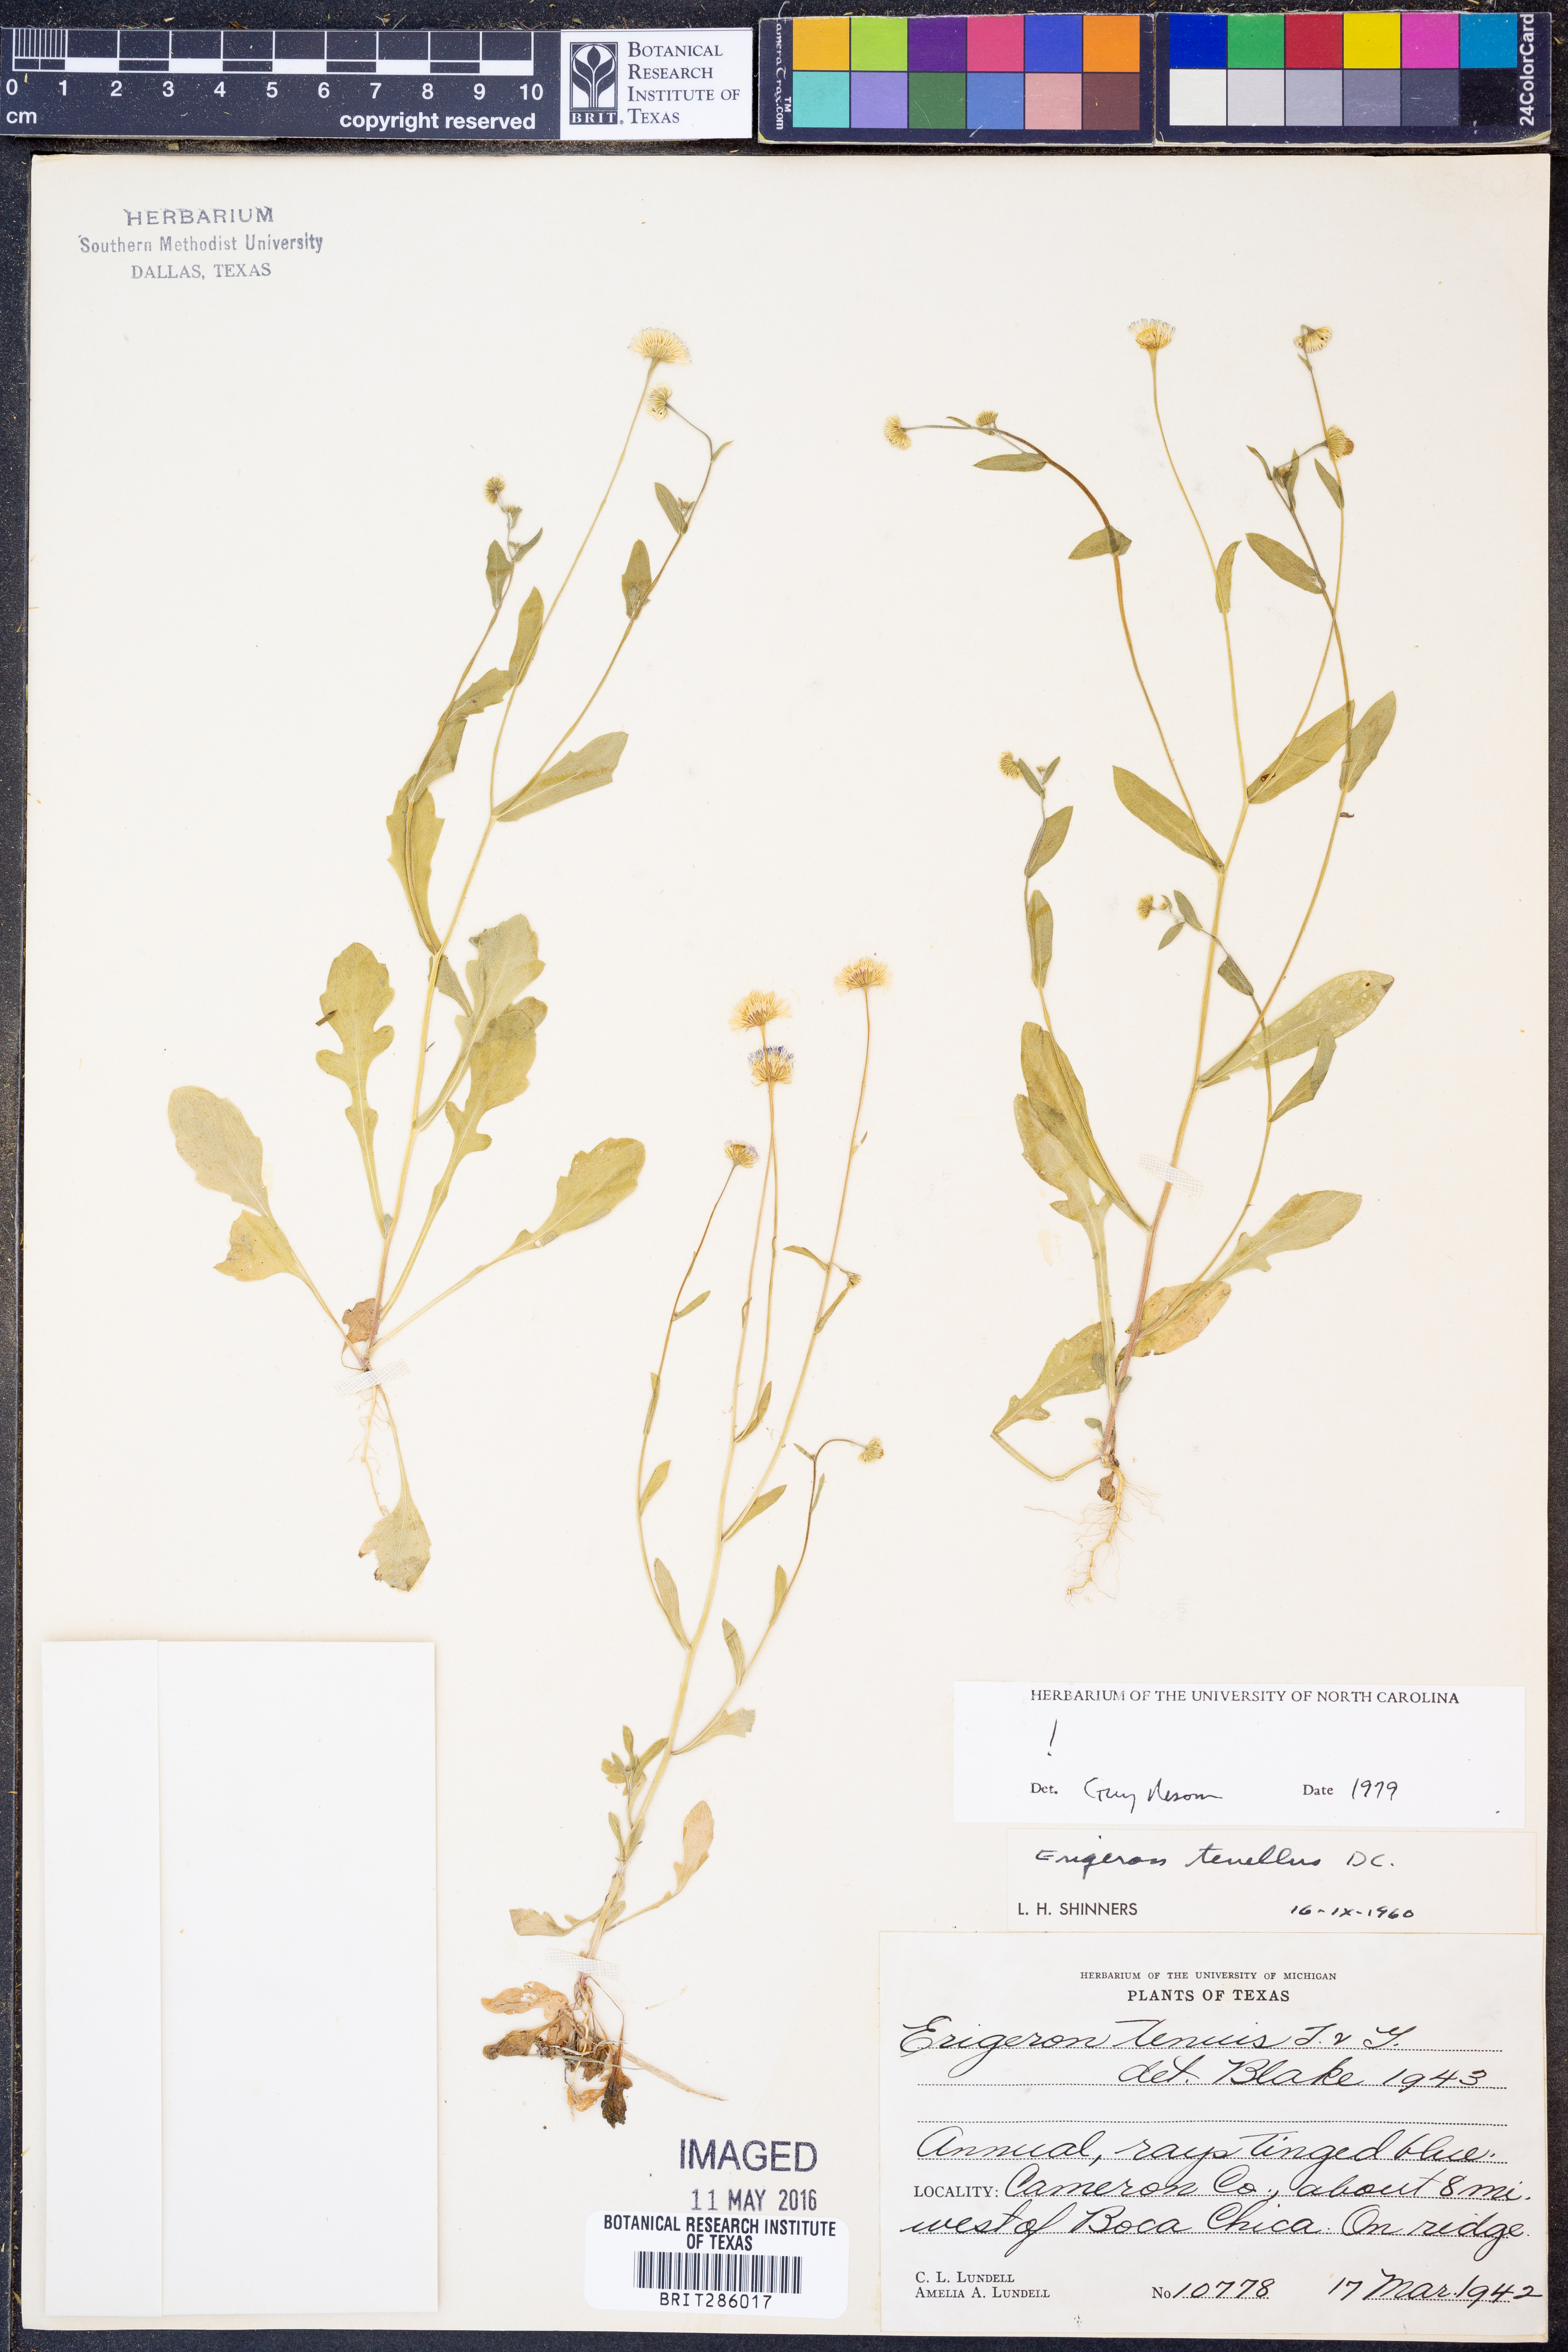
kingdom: Plantae
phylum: Tracheophyta
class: Magnoliopsida
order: Asterales
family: Asteraceae
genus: Erigeron
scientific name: Erigeron tenellus
